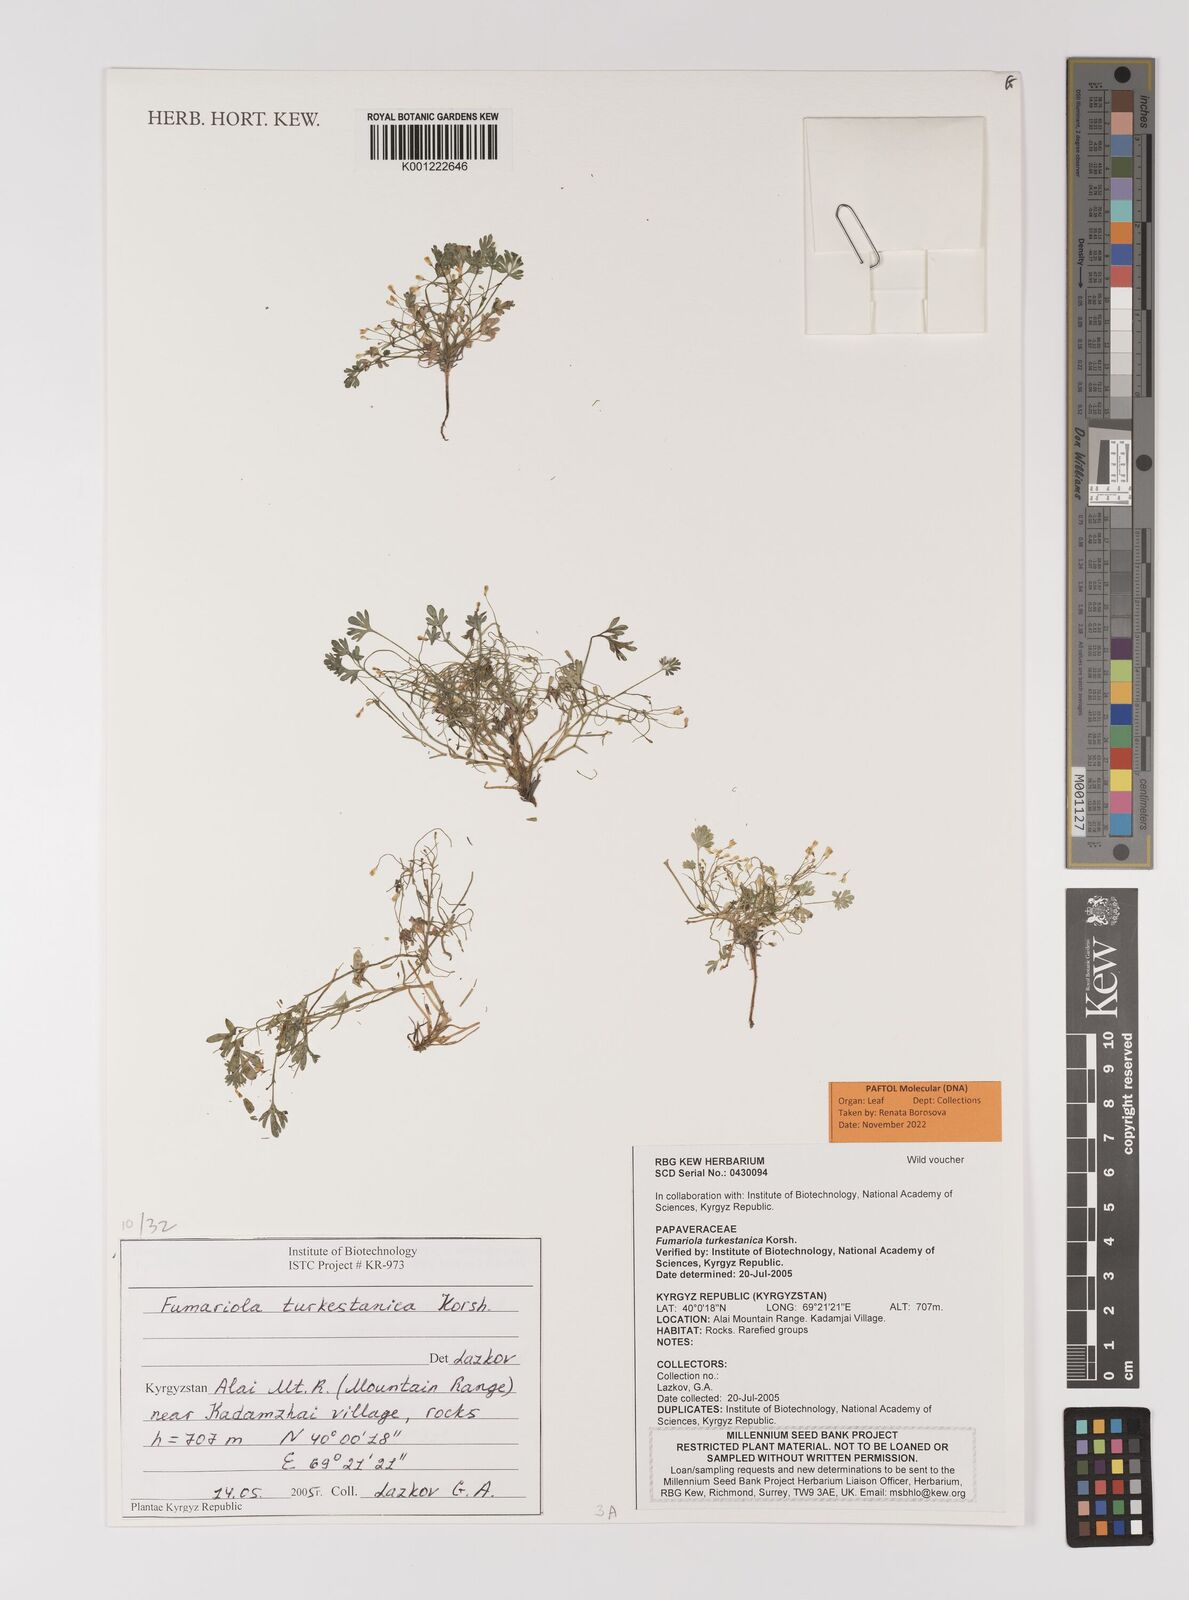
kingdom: Plantae
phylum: Tracheophyta
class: Magnoliopsida
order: Ranunculales
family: Papaveraceae
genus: Fumariola
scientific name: Fumariola turkestanica
